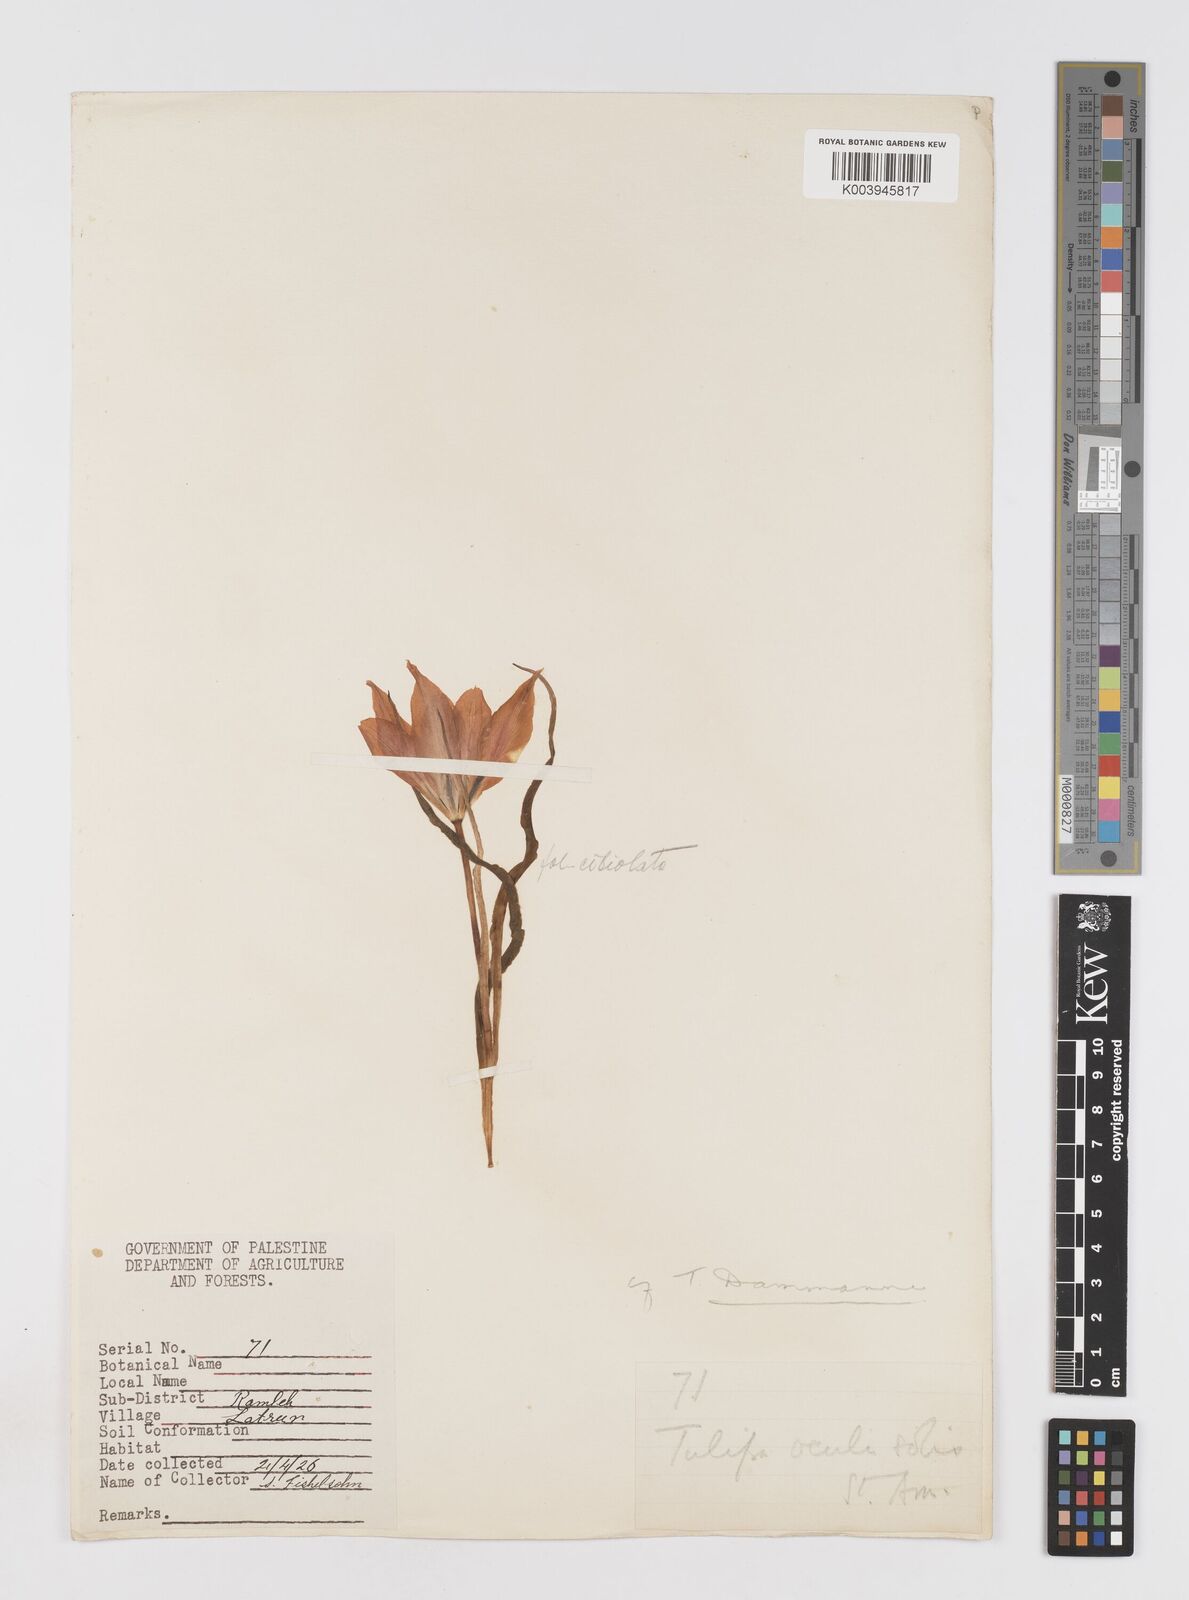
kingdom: Plantae
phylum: Tracheophyta
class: Liliopsida
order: Liliales
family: Liliaceae
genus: Tulipa
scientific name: Tulipa aleppensis
